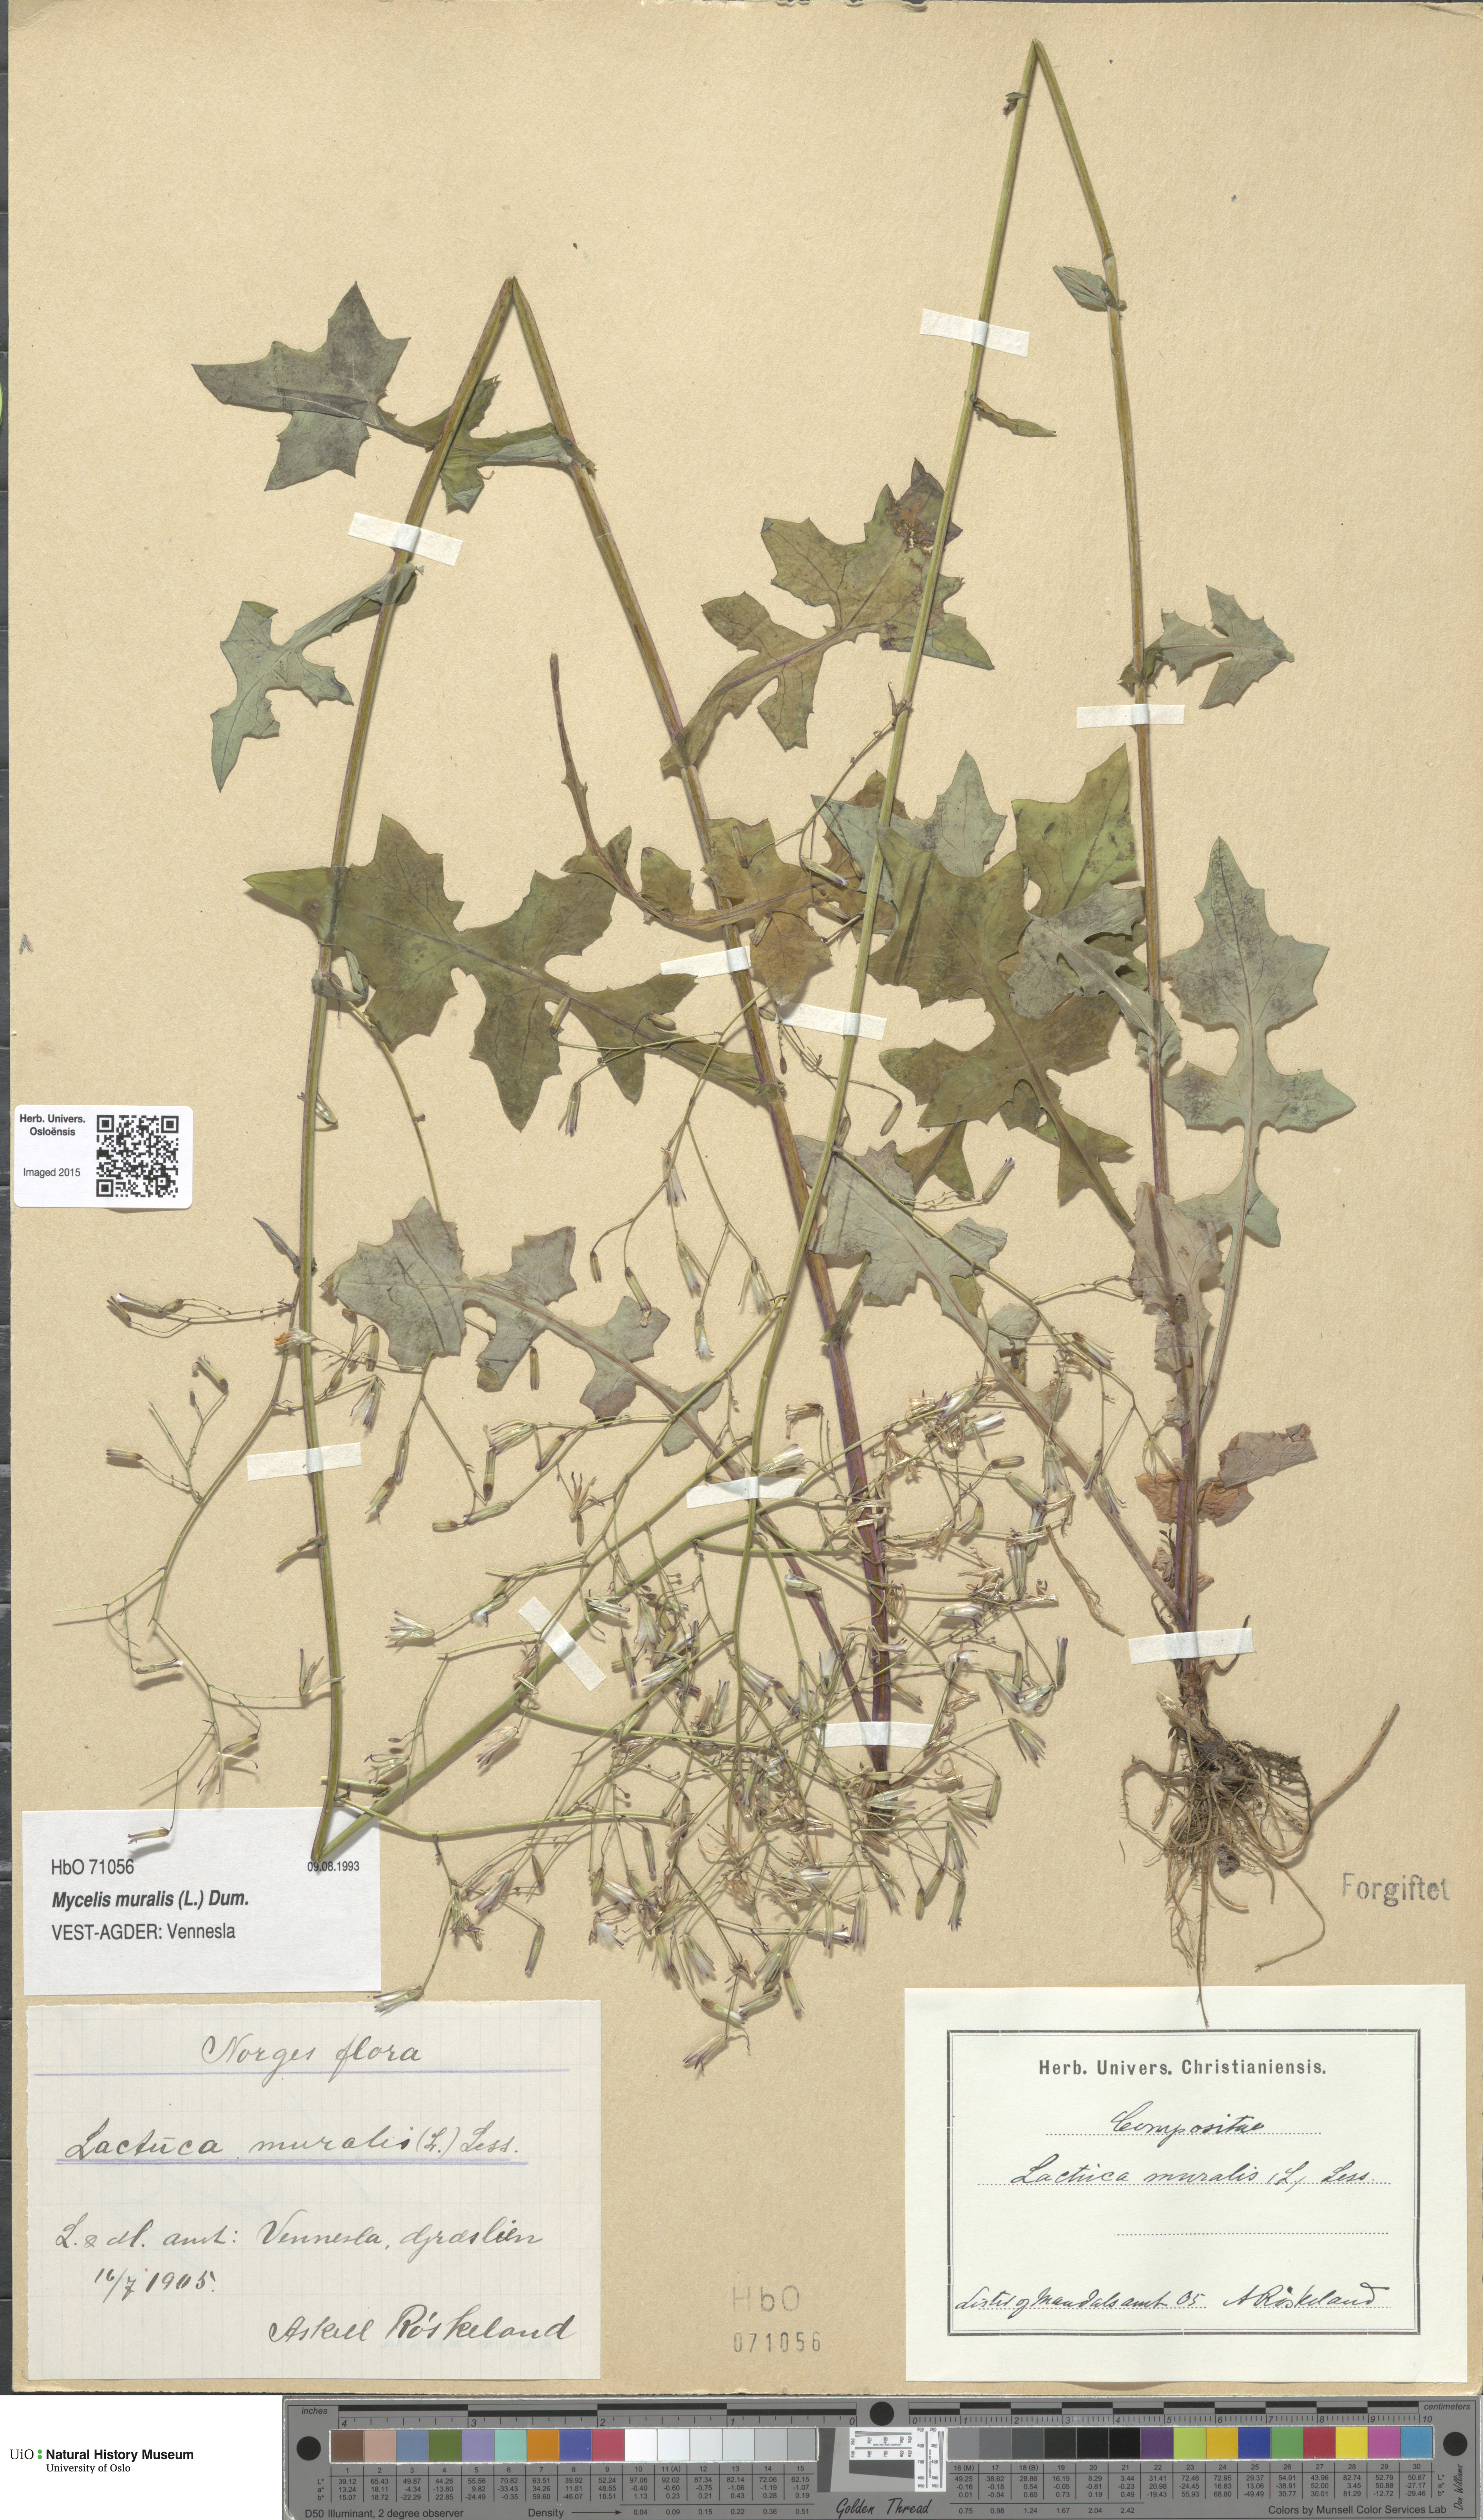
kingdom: Plantae
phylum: Tracheophyta
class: Magnoliopsida
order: Asterales
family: Asteraceae
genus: Mycelis
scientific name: Mycelis muralis
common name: Wall lettuce
